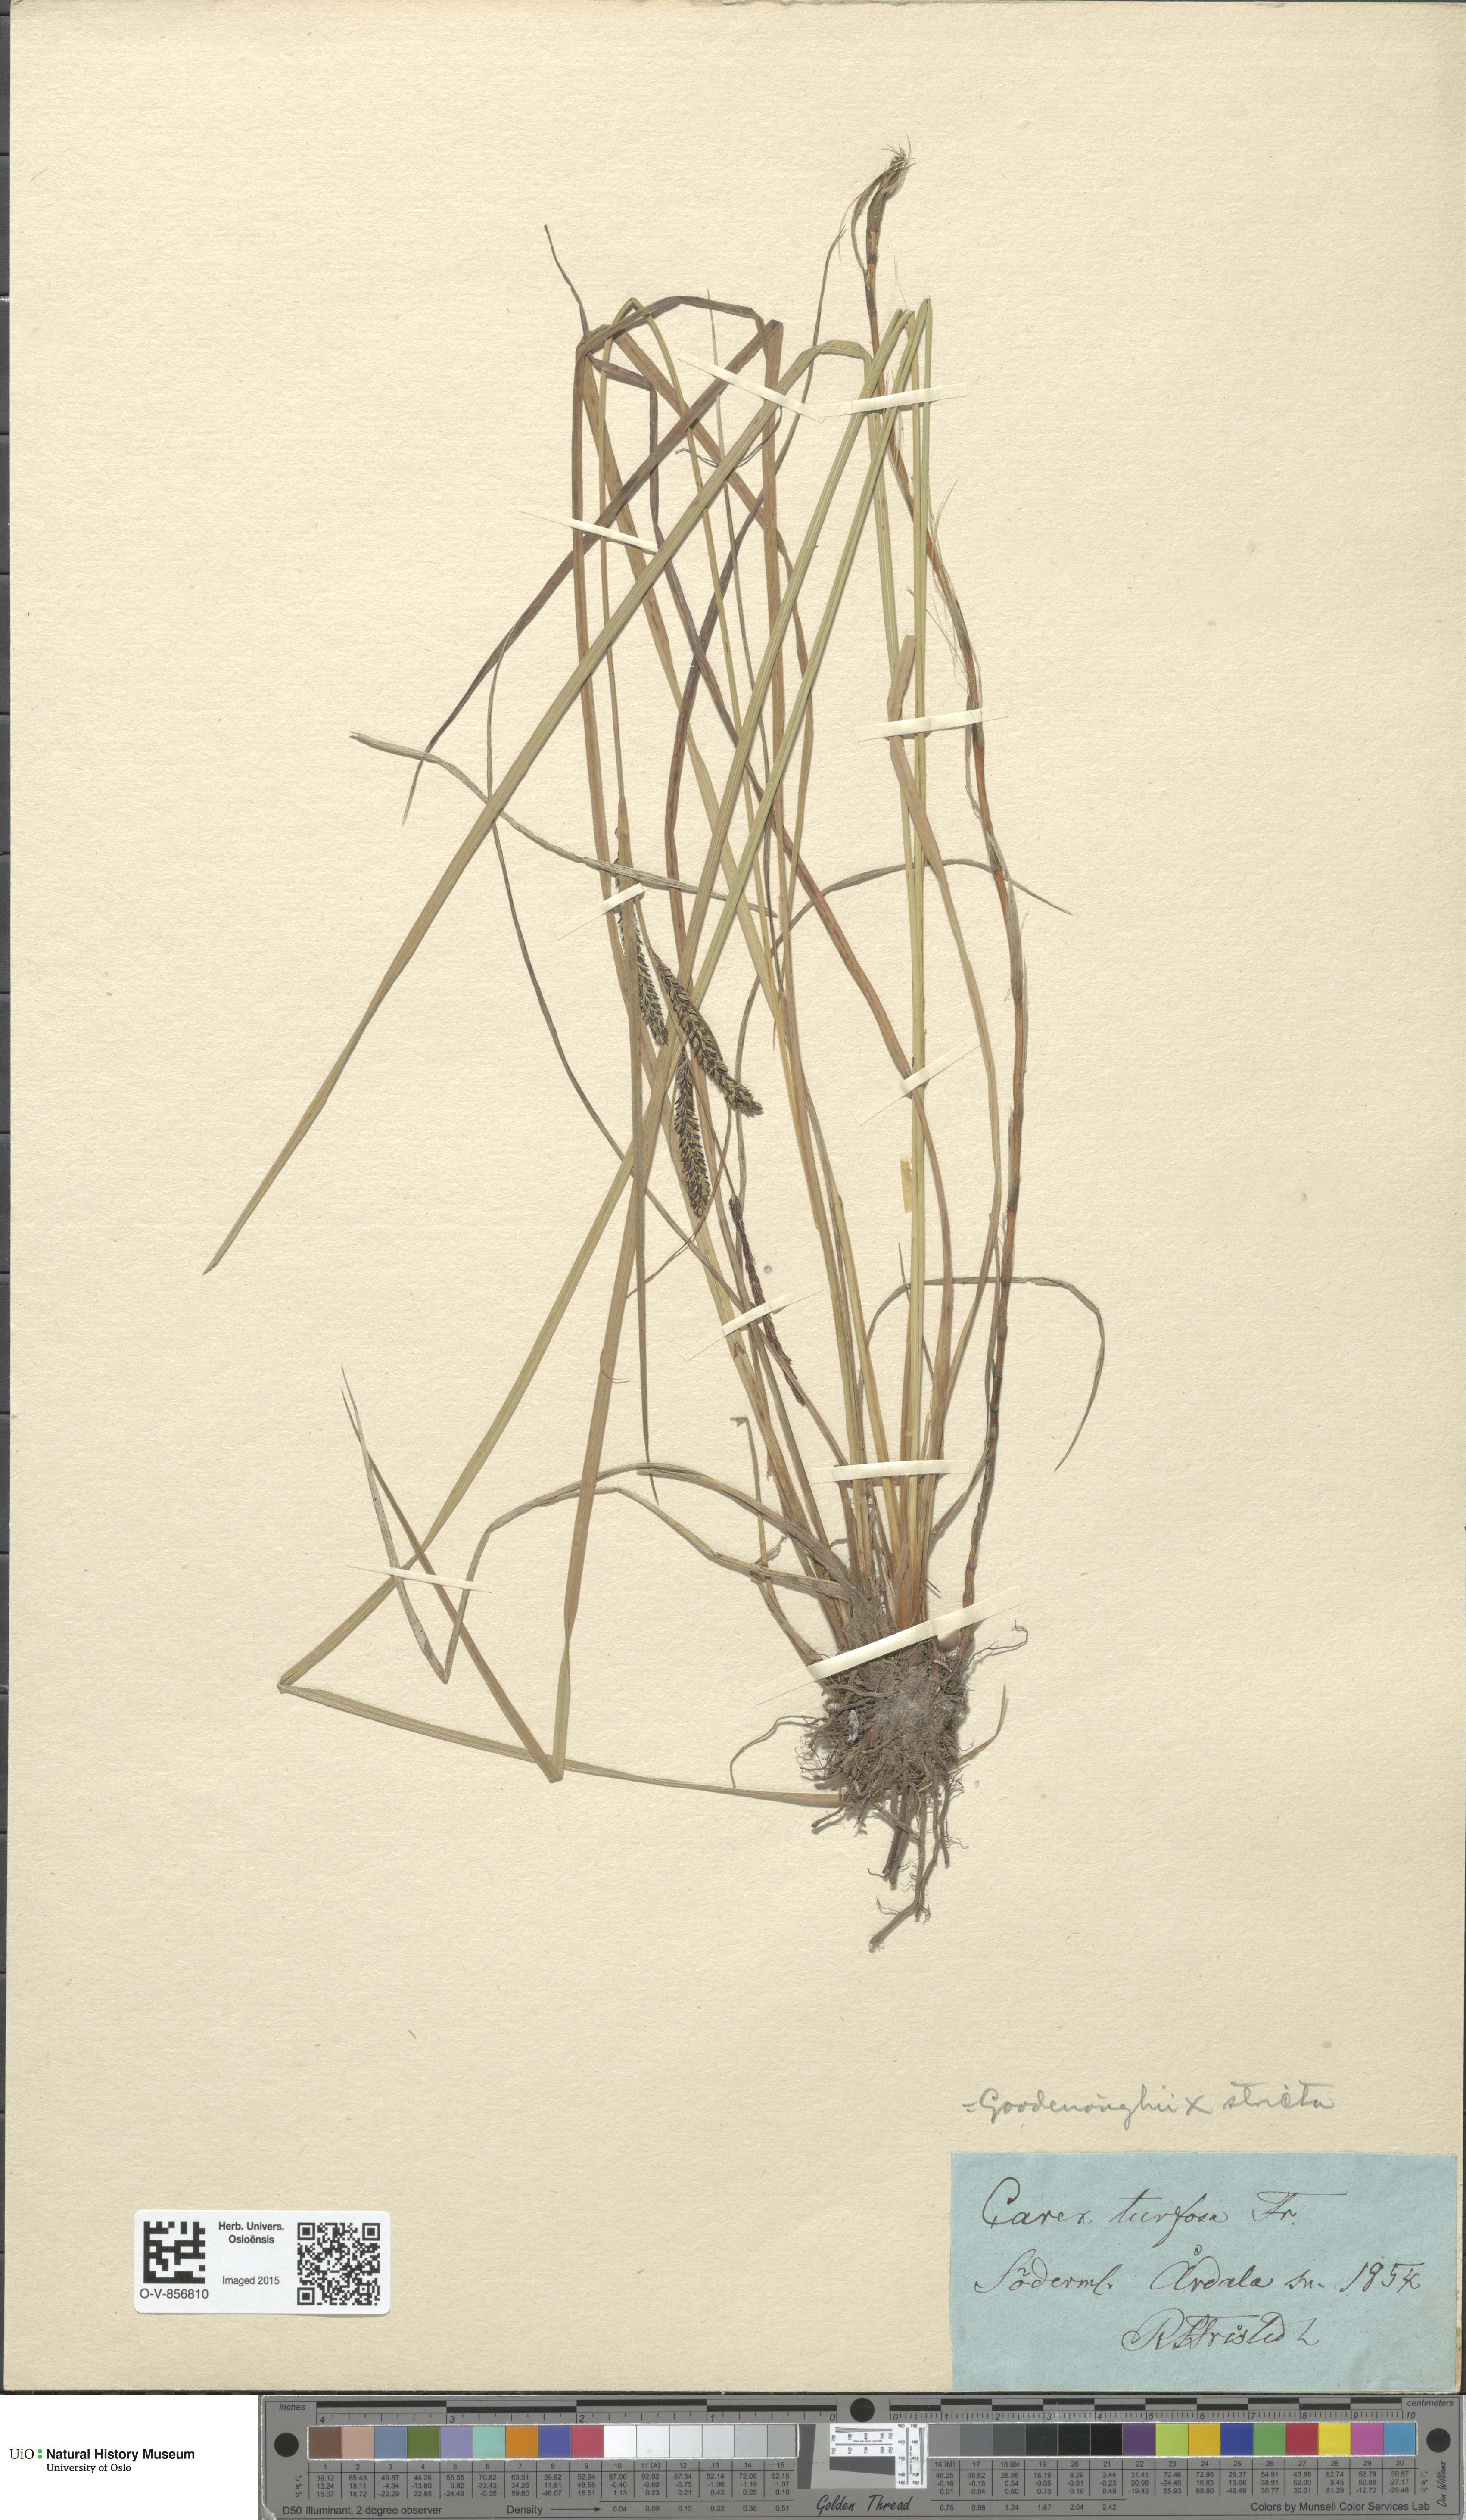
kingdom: Plantae
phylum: Tracheophyta
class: Liliopsida
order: Poales
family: Cyperaceae
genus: Carex
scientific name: Carex
